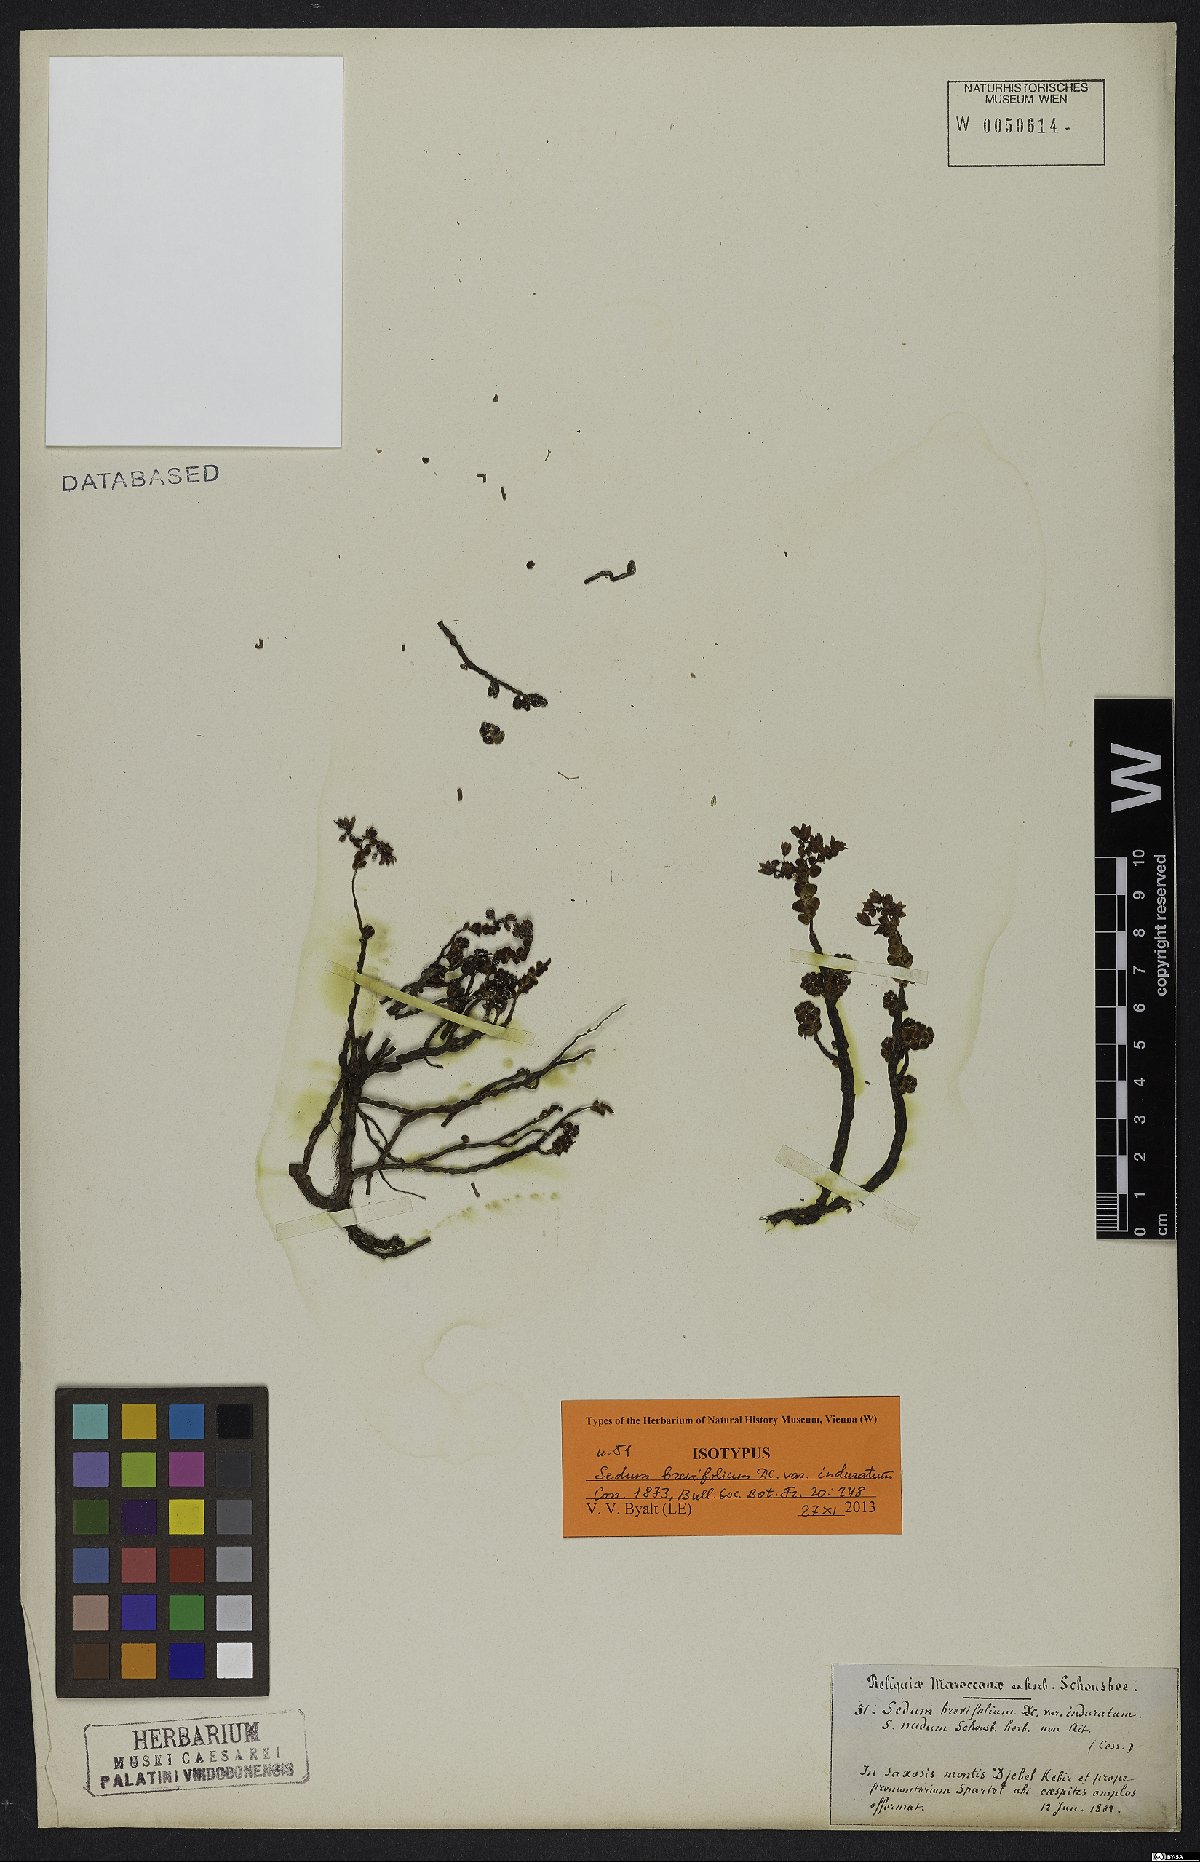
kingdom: Plantae
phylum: Tracheophyta
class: Magnoliopsida
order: Saxifragales
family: Crassulaceae
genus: Sedum
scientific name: Sedum brevifolium
